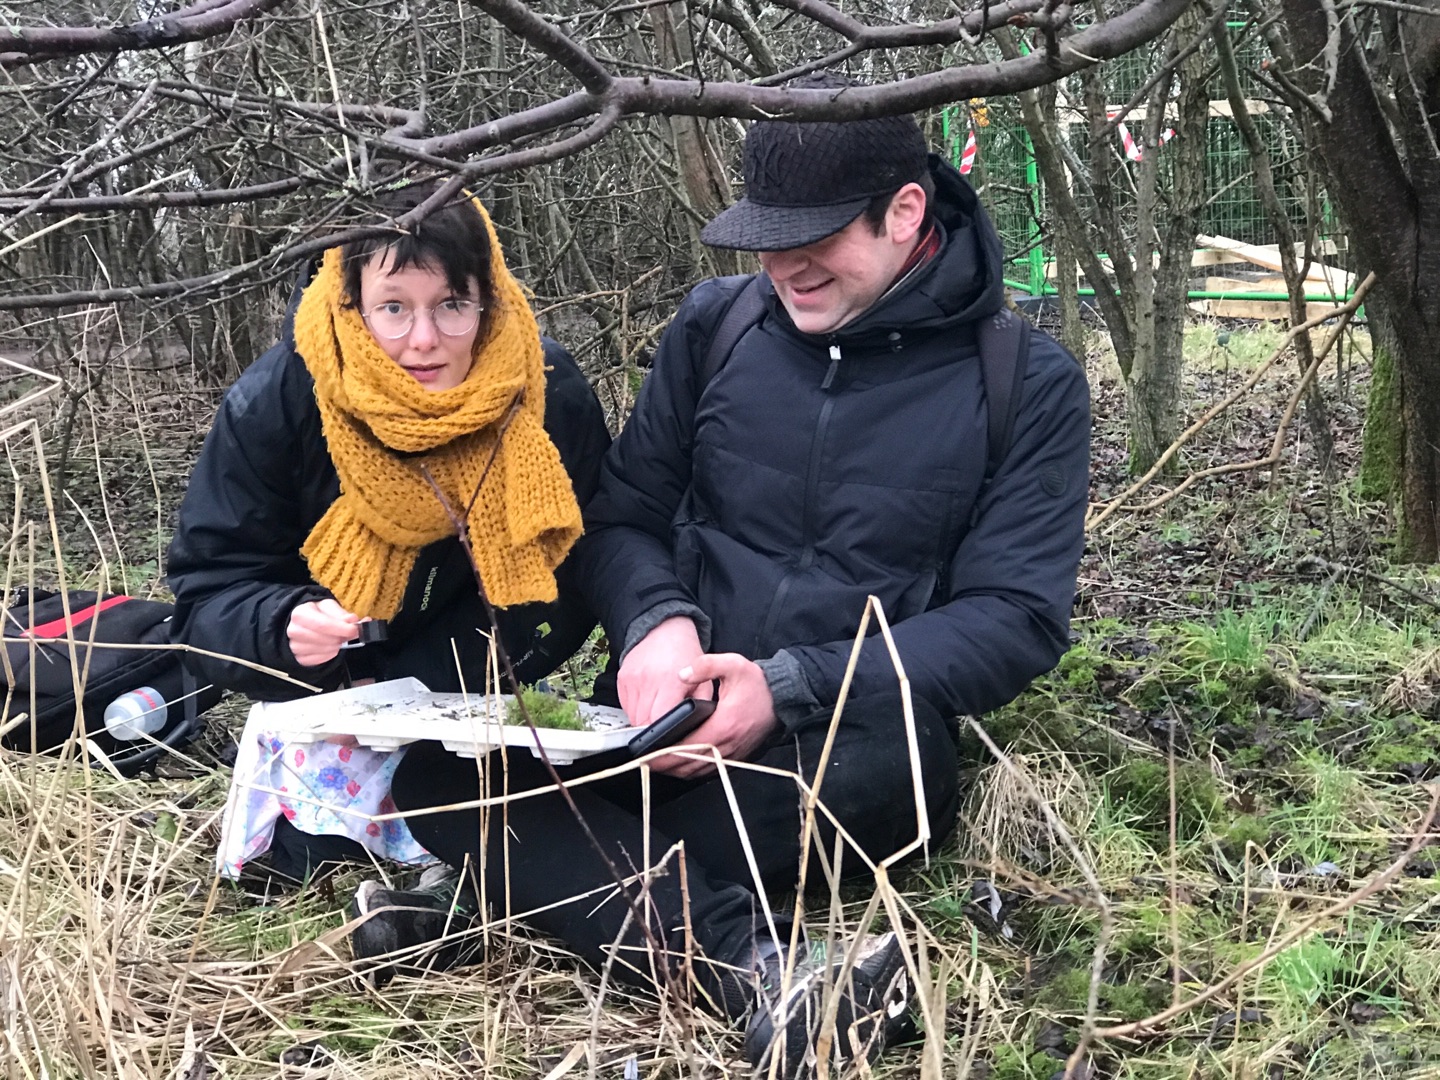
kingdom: Animalia
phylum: Arthropoda
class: Arachnida
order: Pseudoscorpiones
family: Neobisiidae
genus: Neobisium
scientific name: Neobisium carcinoides
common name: Almindelig mosskorpion
